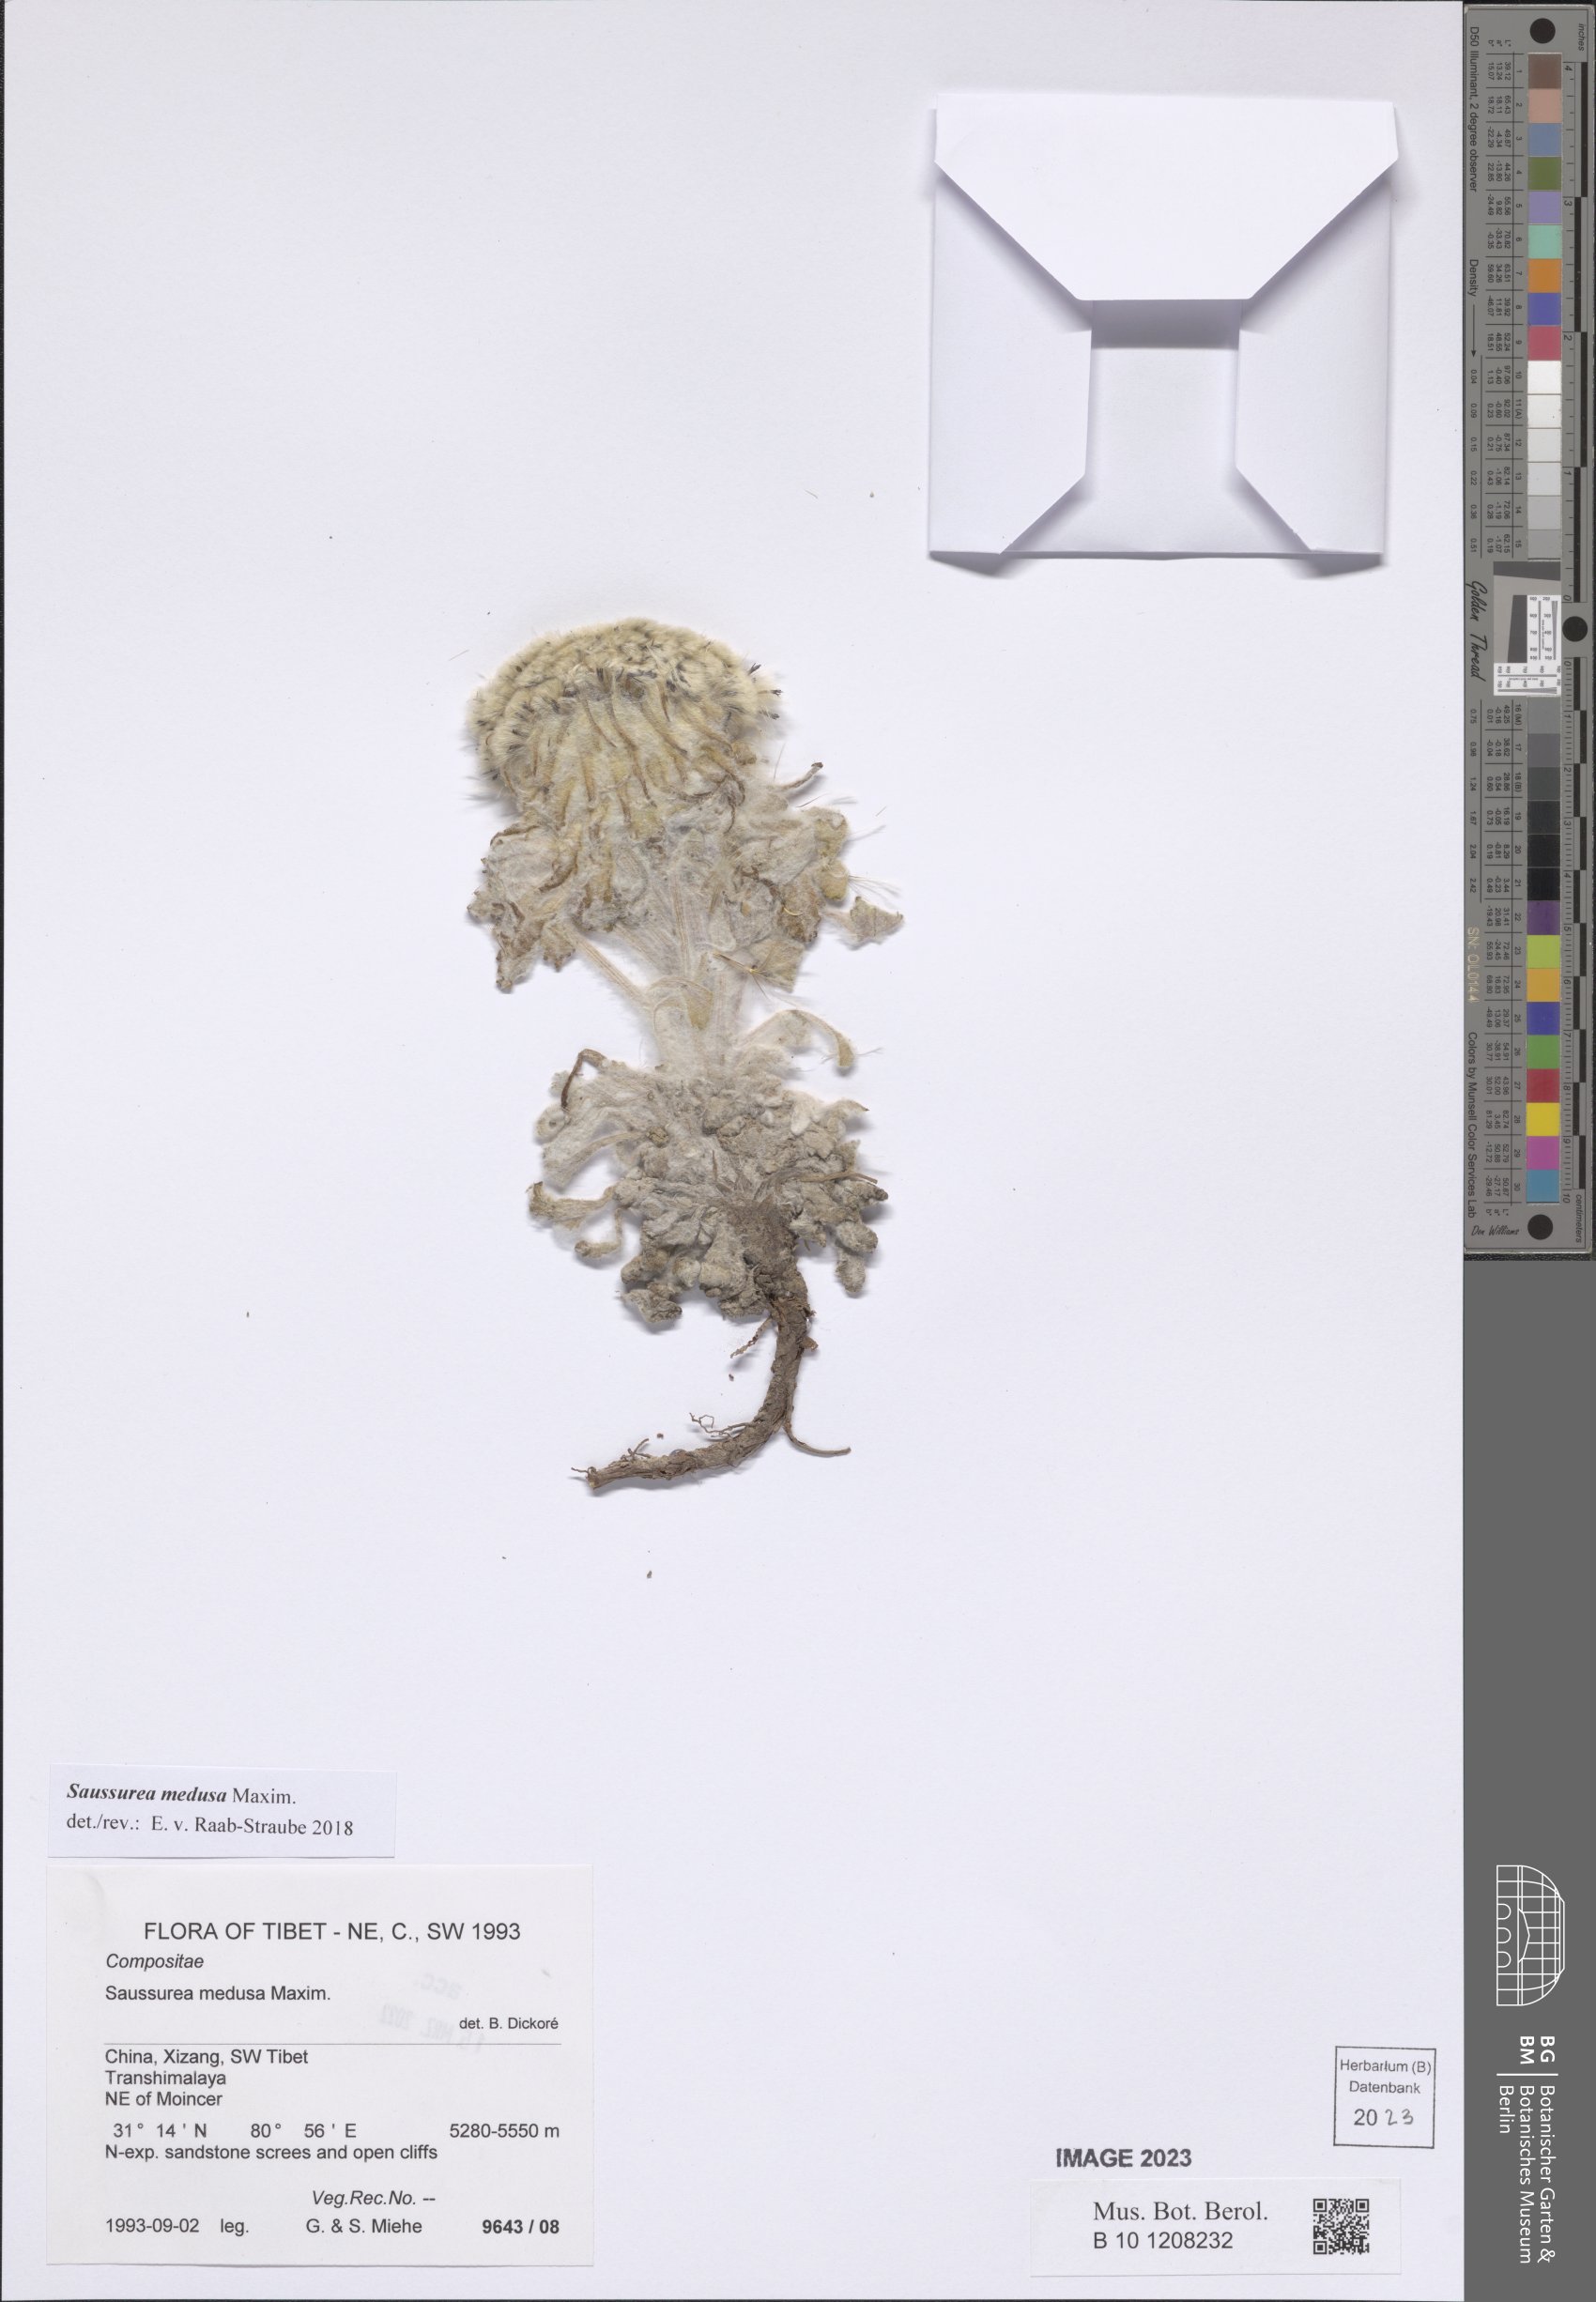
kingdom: Plantae
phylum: Tracheophyta
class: Magnoliopsida
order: Asterales
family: Asteraceae
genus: Saussurea
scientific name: Saussurea medusa
